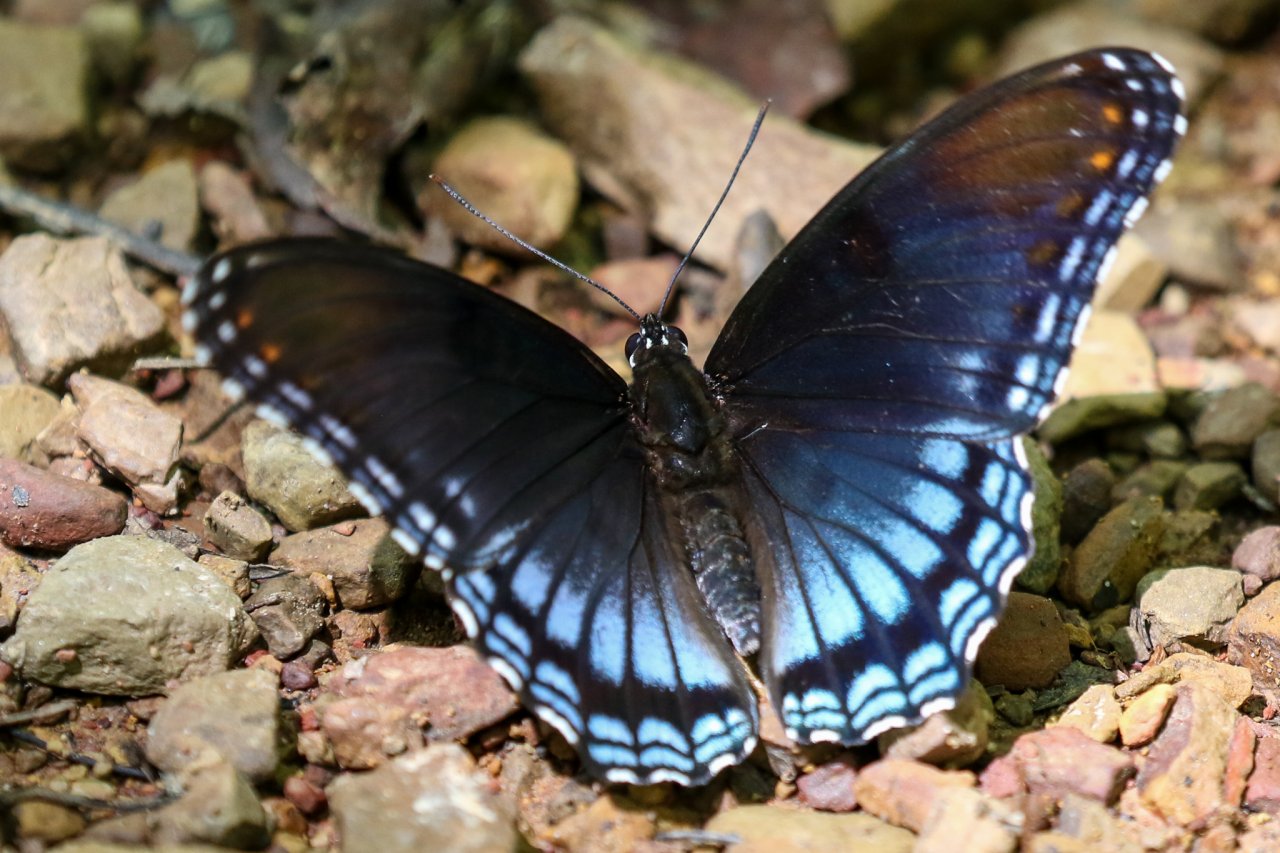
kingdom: Animalia
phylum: Arthropoda
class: Insecta
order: Lepidoptera
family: Nymphalidae
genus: Limenitis
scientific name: Limenitis astyanax
